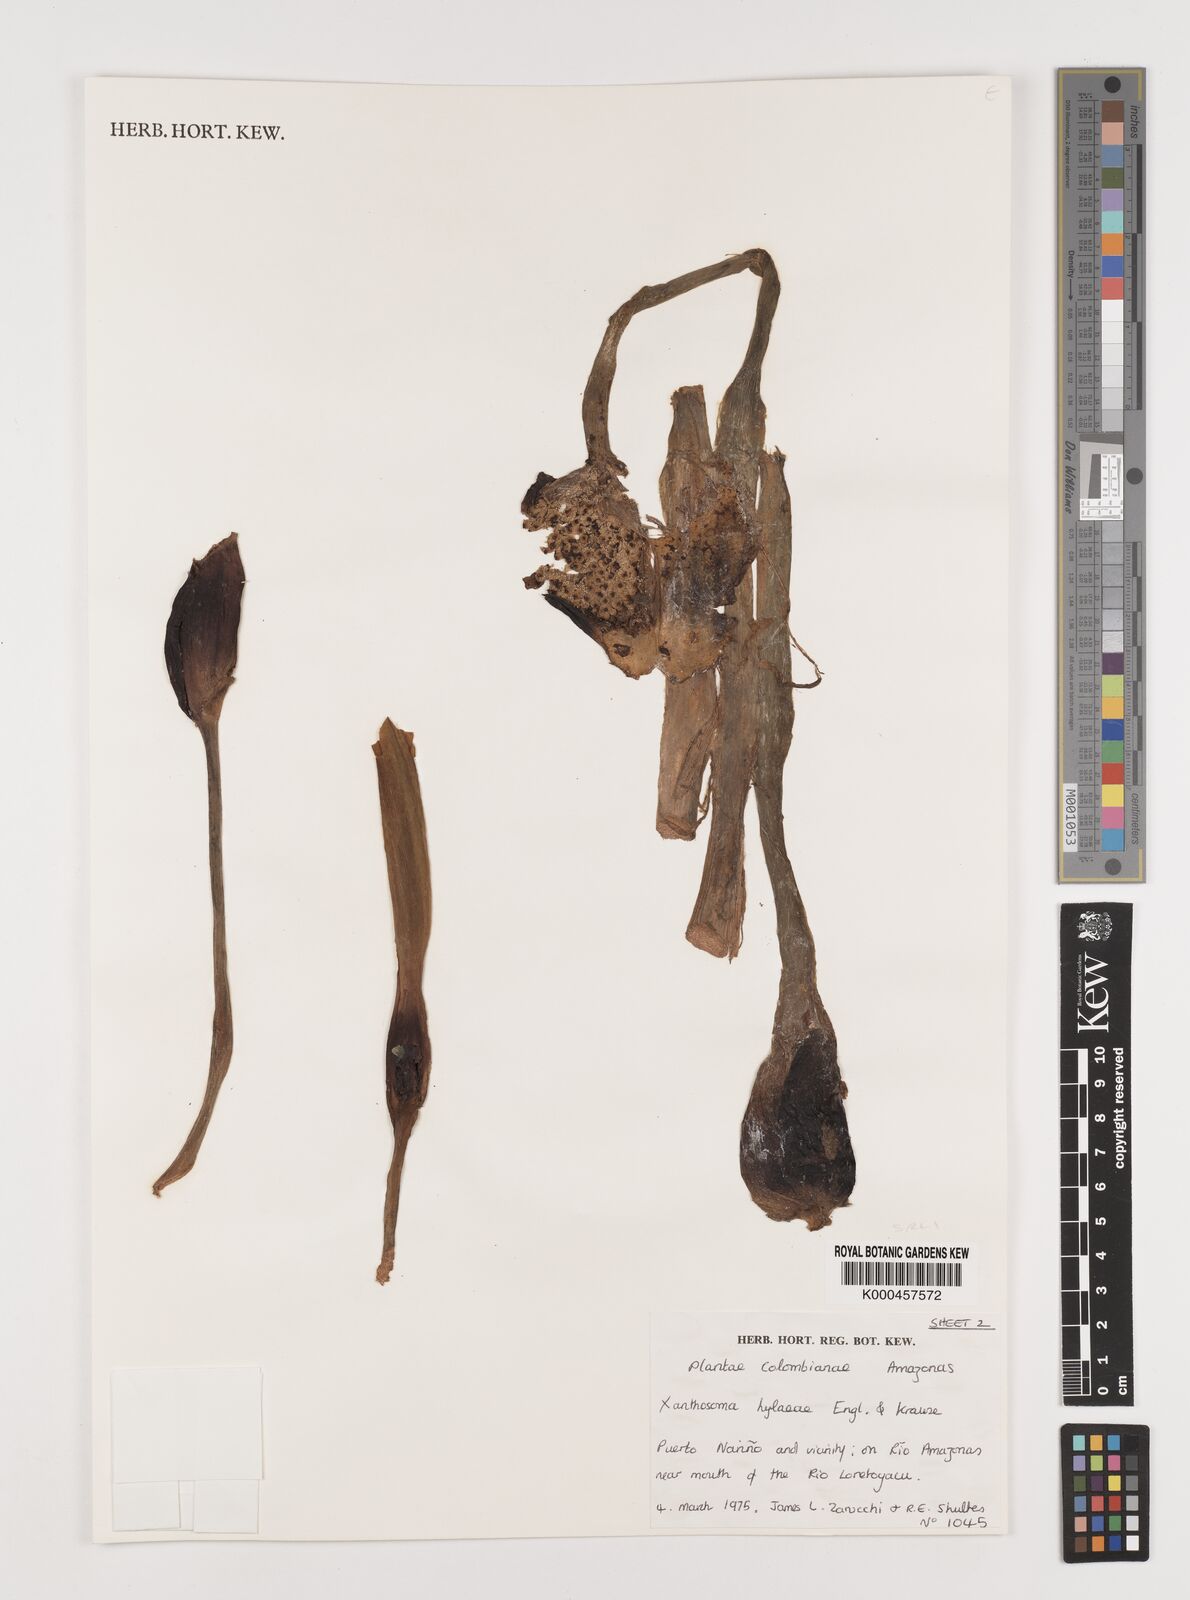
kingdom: Plantae
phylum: Tracheophyta
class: Liliopsida
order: Alismatales
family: Araceae
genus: Xanthosoma
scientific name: Xanthosoma hylaeae
